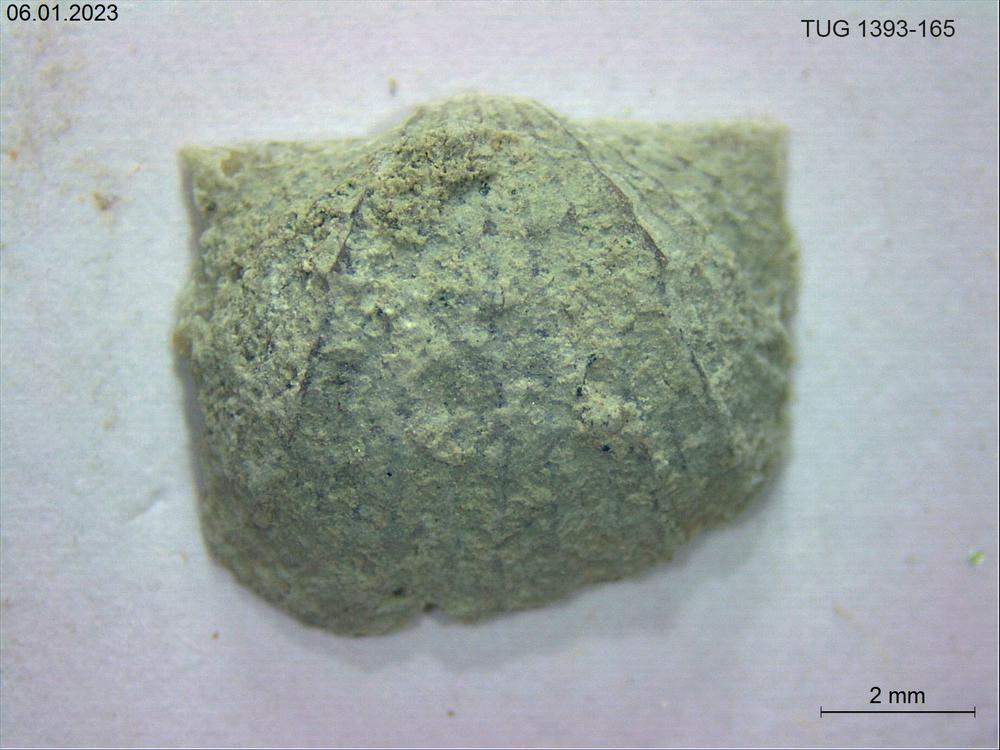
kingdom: Animalia
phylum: Brachiopoda
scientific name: Brachiopoda
